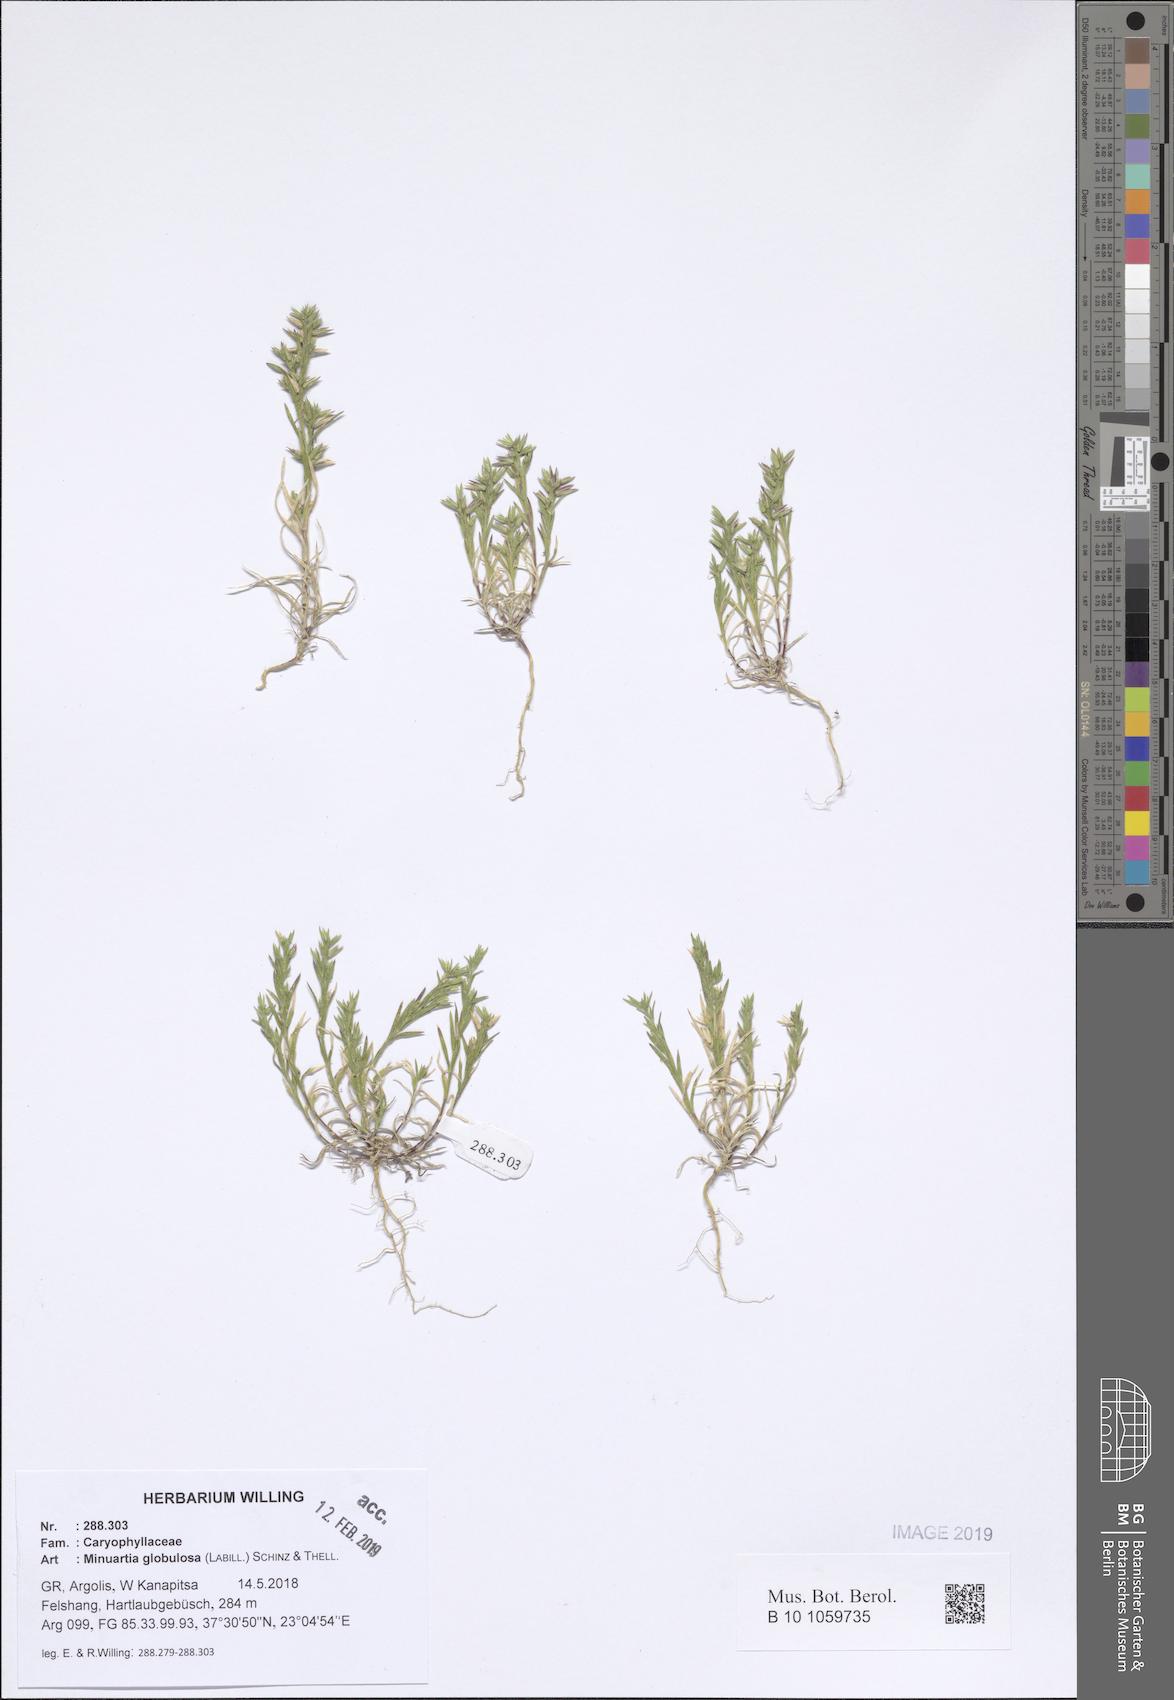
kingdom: Plantae
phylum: Tracheophyta
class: Magnoliopsida
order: Caryophyllales
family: Caryophyllaceae
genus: Minuartia
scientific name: Minuartia globulosa
